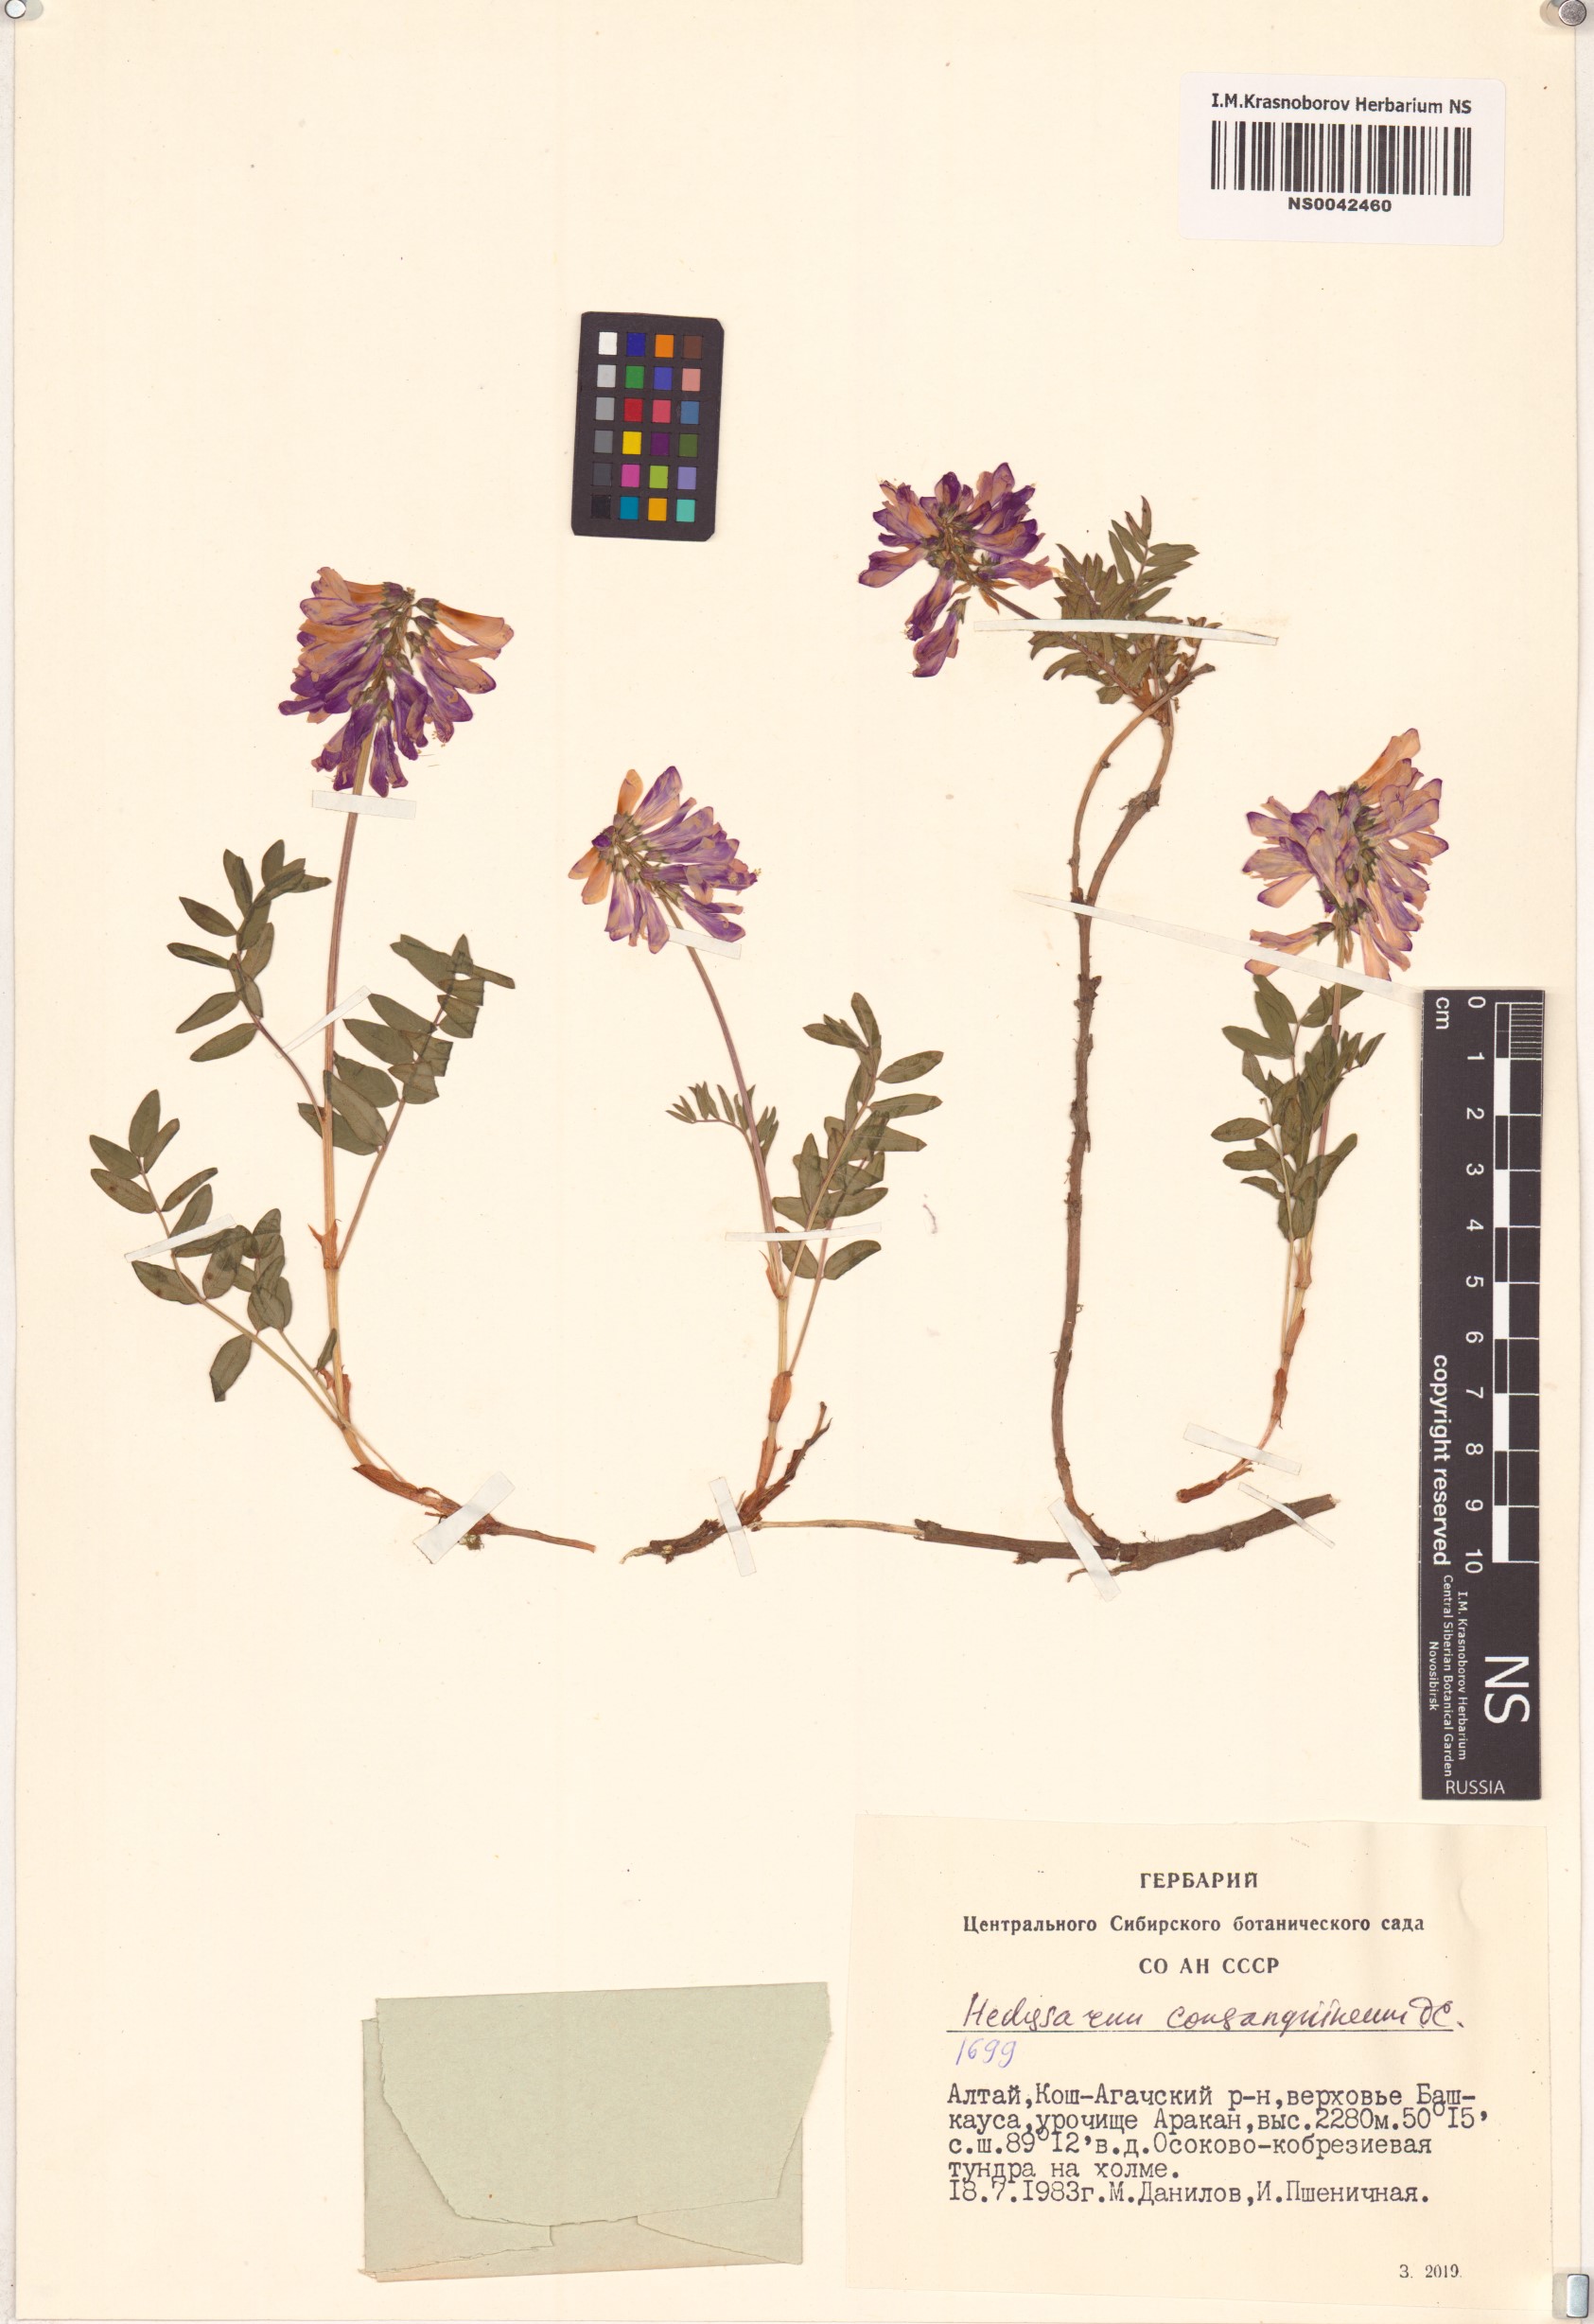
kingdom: Plantae
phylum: Tracheophyta
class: Magnoliopsida
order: Fabales
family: Fabaceae
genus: Hedysarum
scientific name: Hedysarum consanguineum
